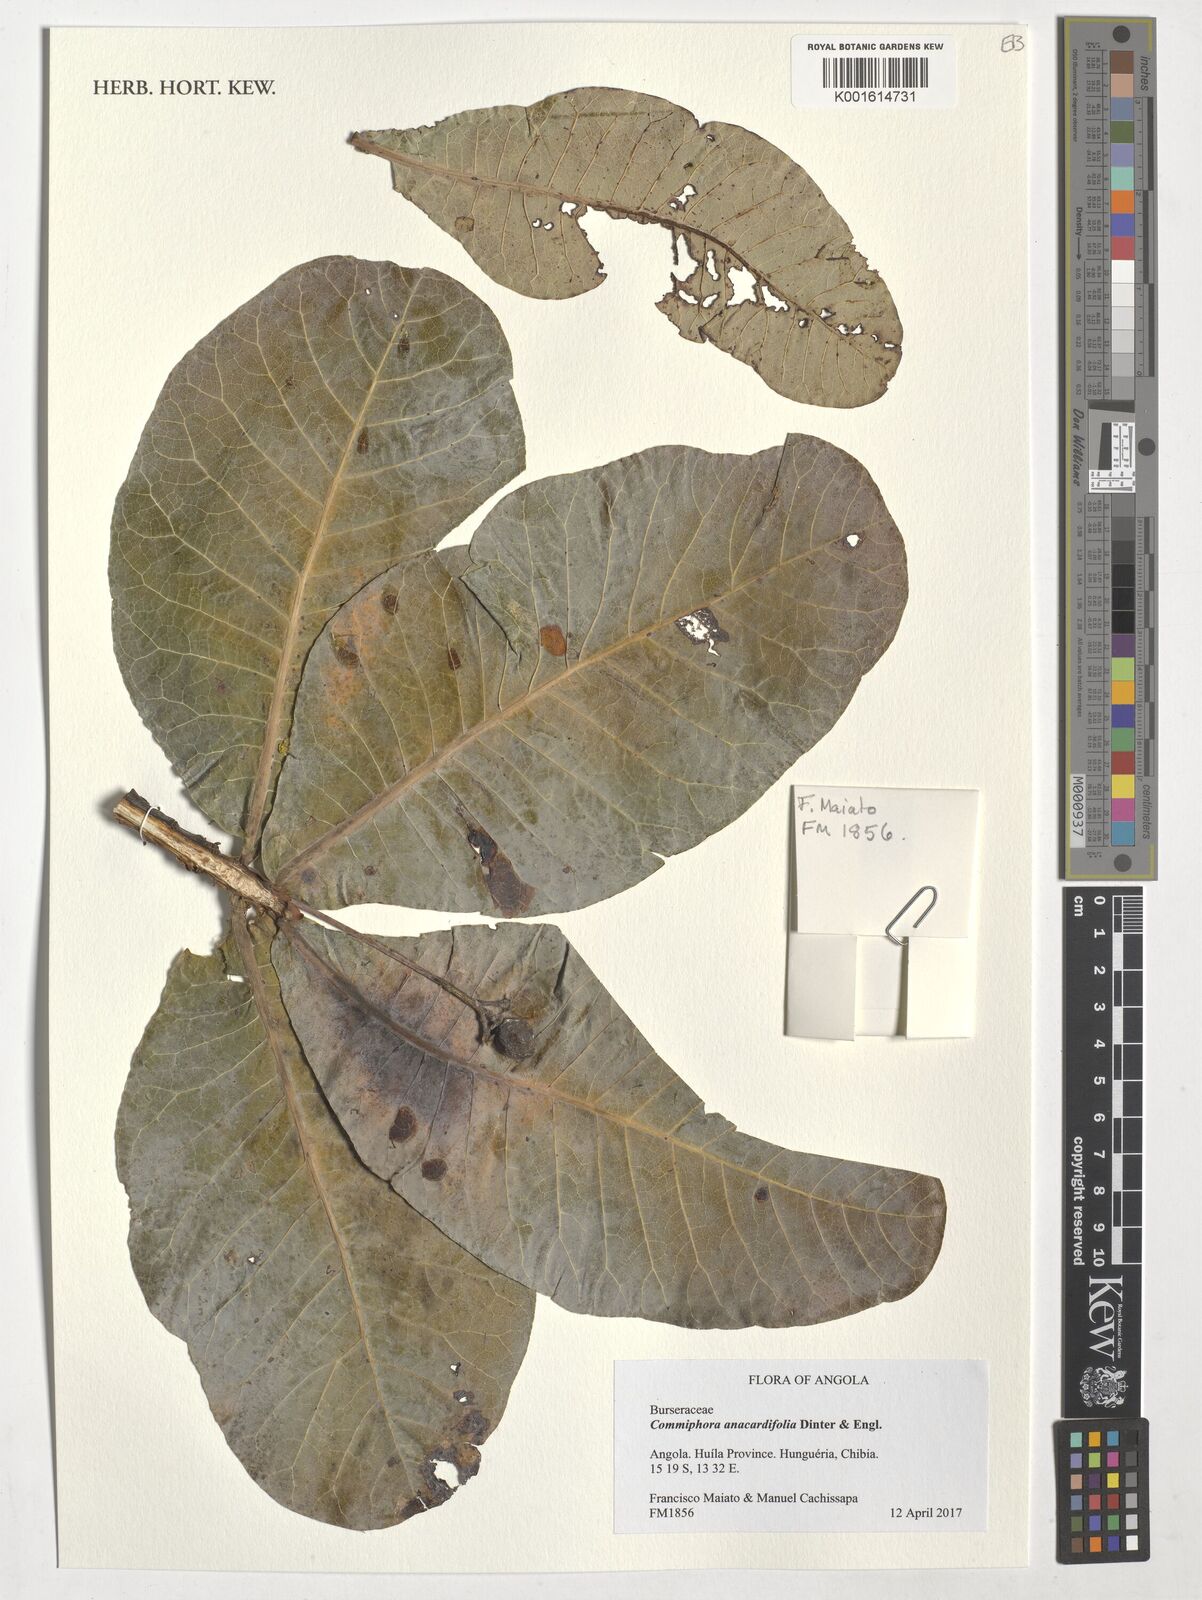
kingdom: Plantae
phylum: Tracheophyta
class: Magnoliopsida
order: Sapindales
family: Burseraceae
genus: Commiphora
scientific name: Commiphora anacardiifolia
